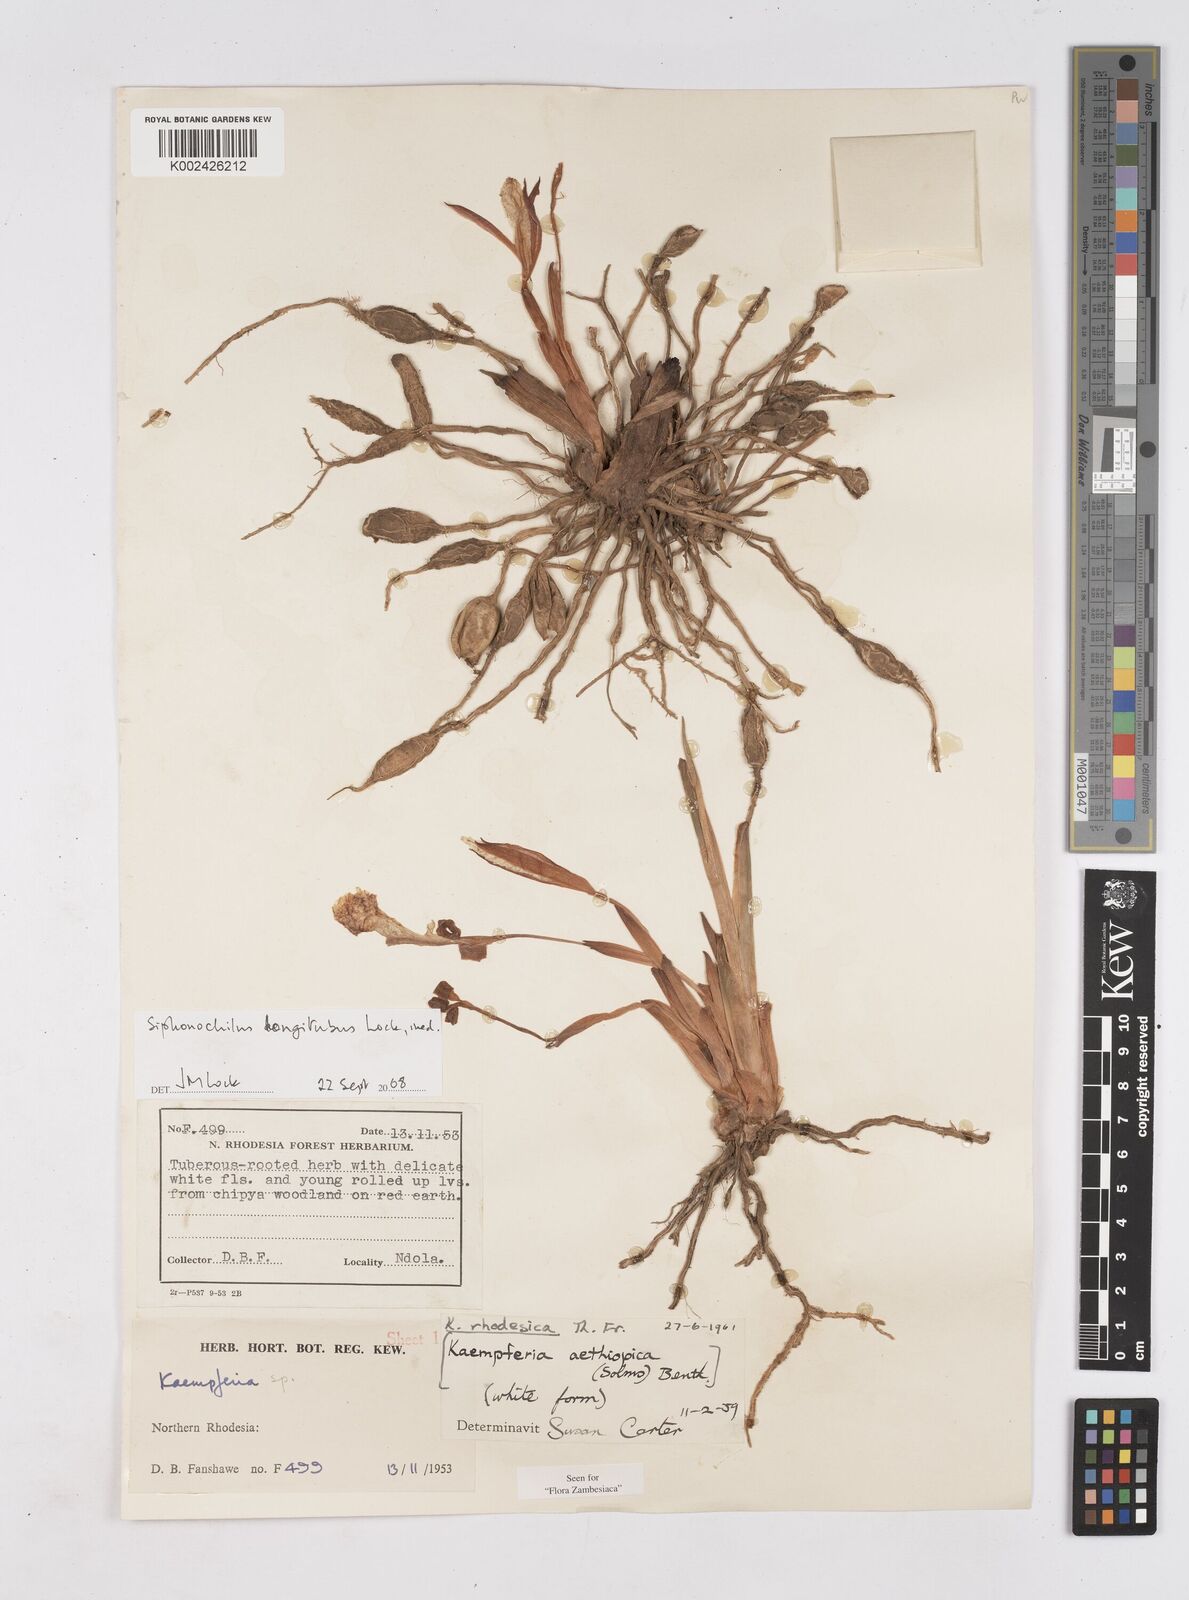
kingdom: Plantae
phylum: Tracheophyta
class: Liliopsida
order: Zingiberales
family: Zingiberaceae
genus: Siphonochilus
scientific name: Siphonochilus longitubus
